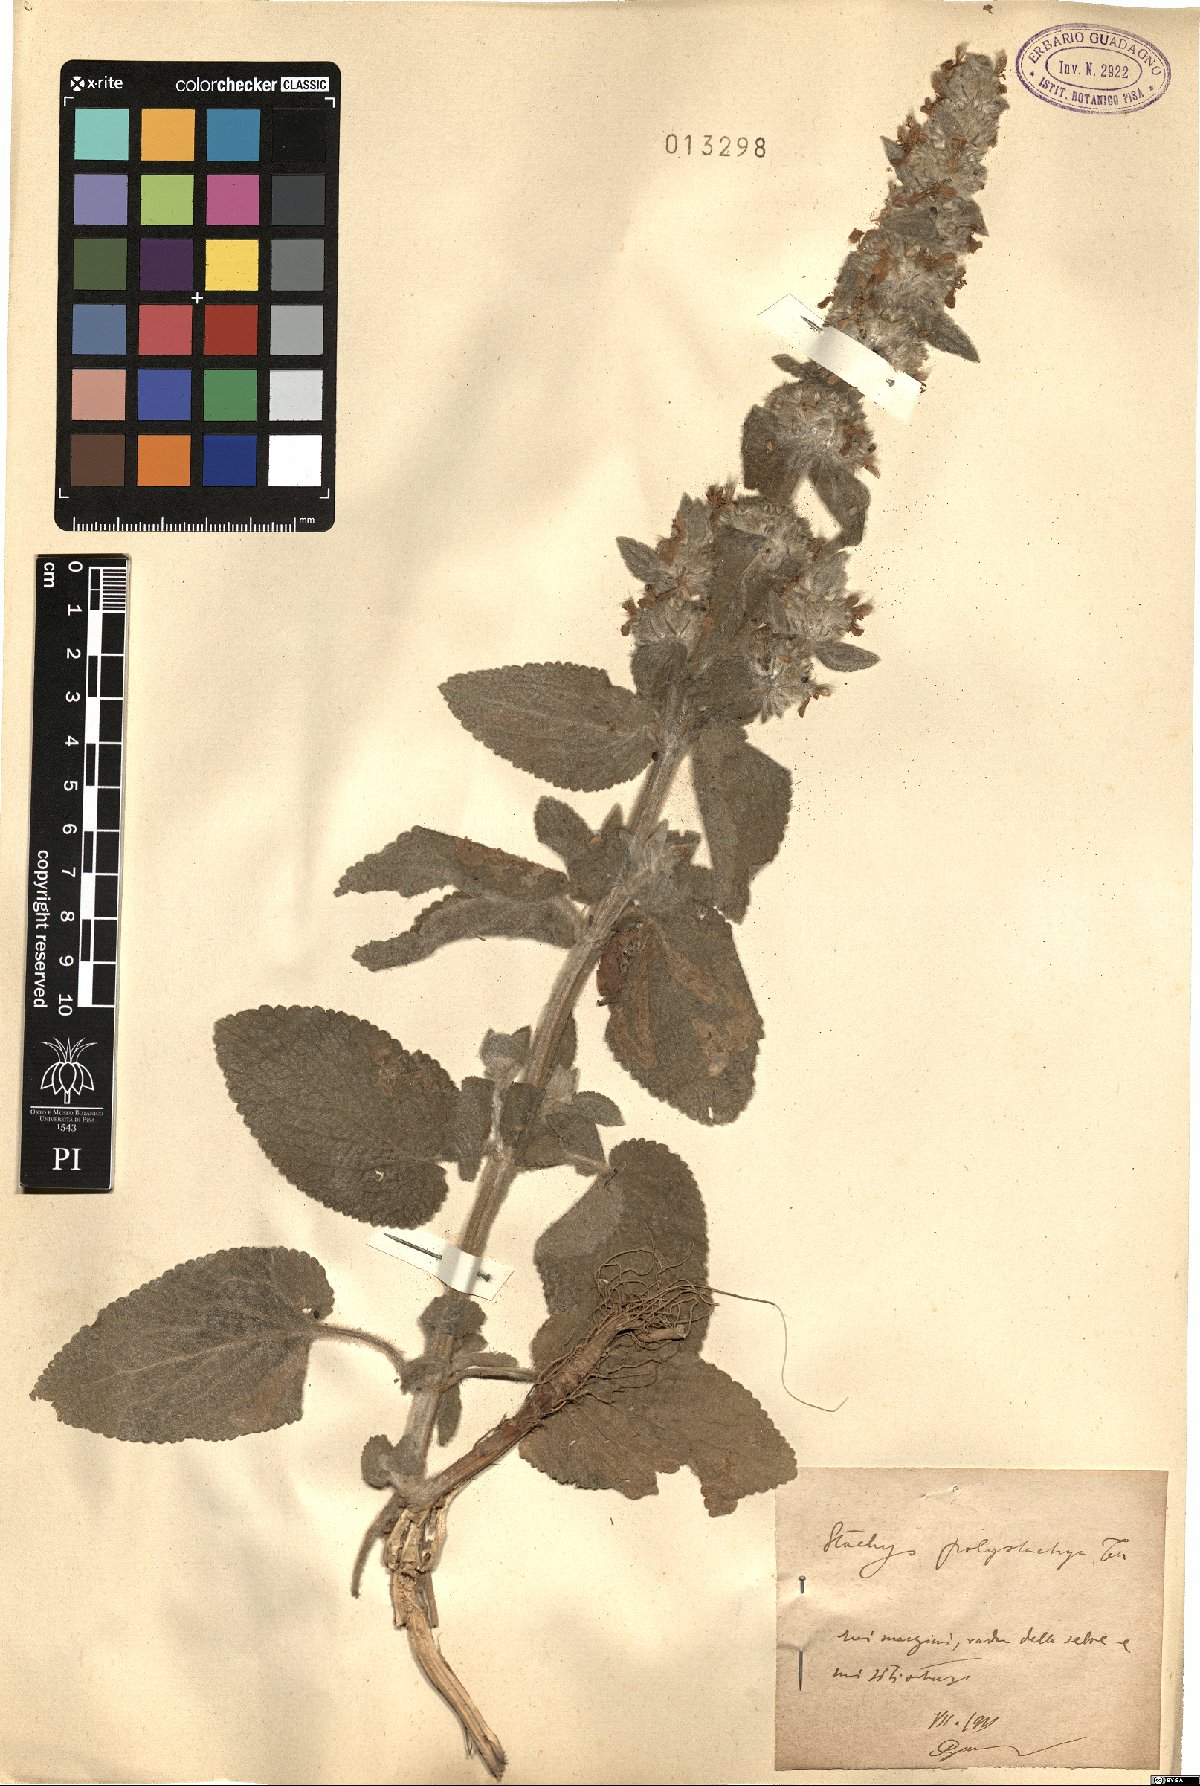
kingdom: Plantae
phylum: Tracheophyta
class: Magnoliopsida
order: Lamiales
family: Lamiaceae
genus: Stachys
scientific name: Stachys germanica
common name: Downy woundwort
